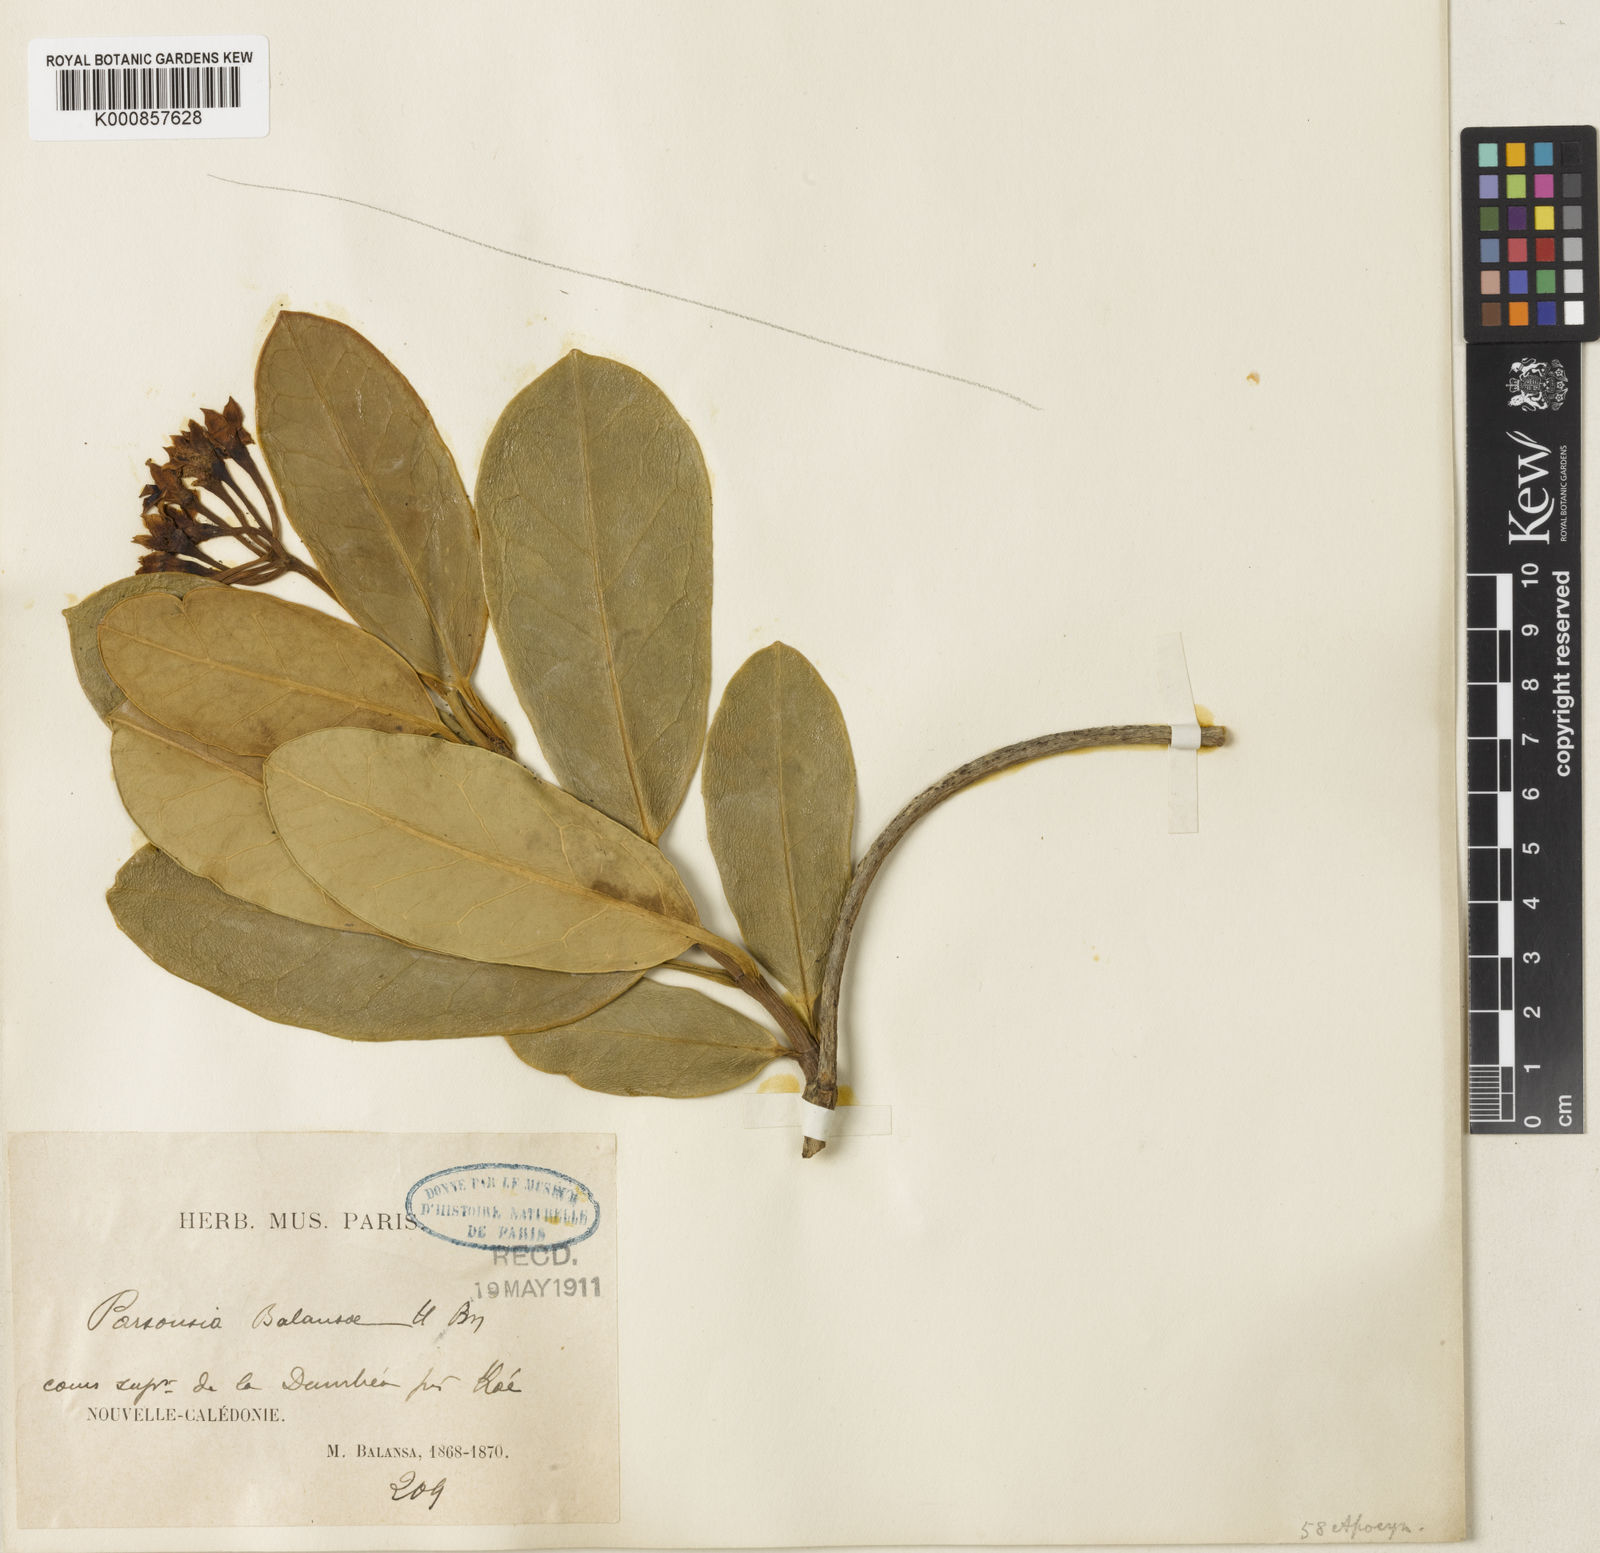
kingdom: Plantae
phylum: Tracheophyta
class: Magnoliopsida
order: Gentianales
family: Apocynaceae
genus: Artia
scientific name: Artia balansae
